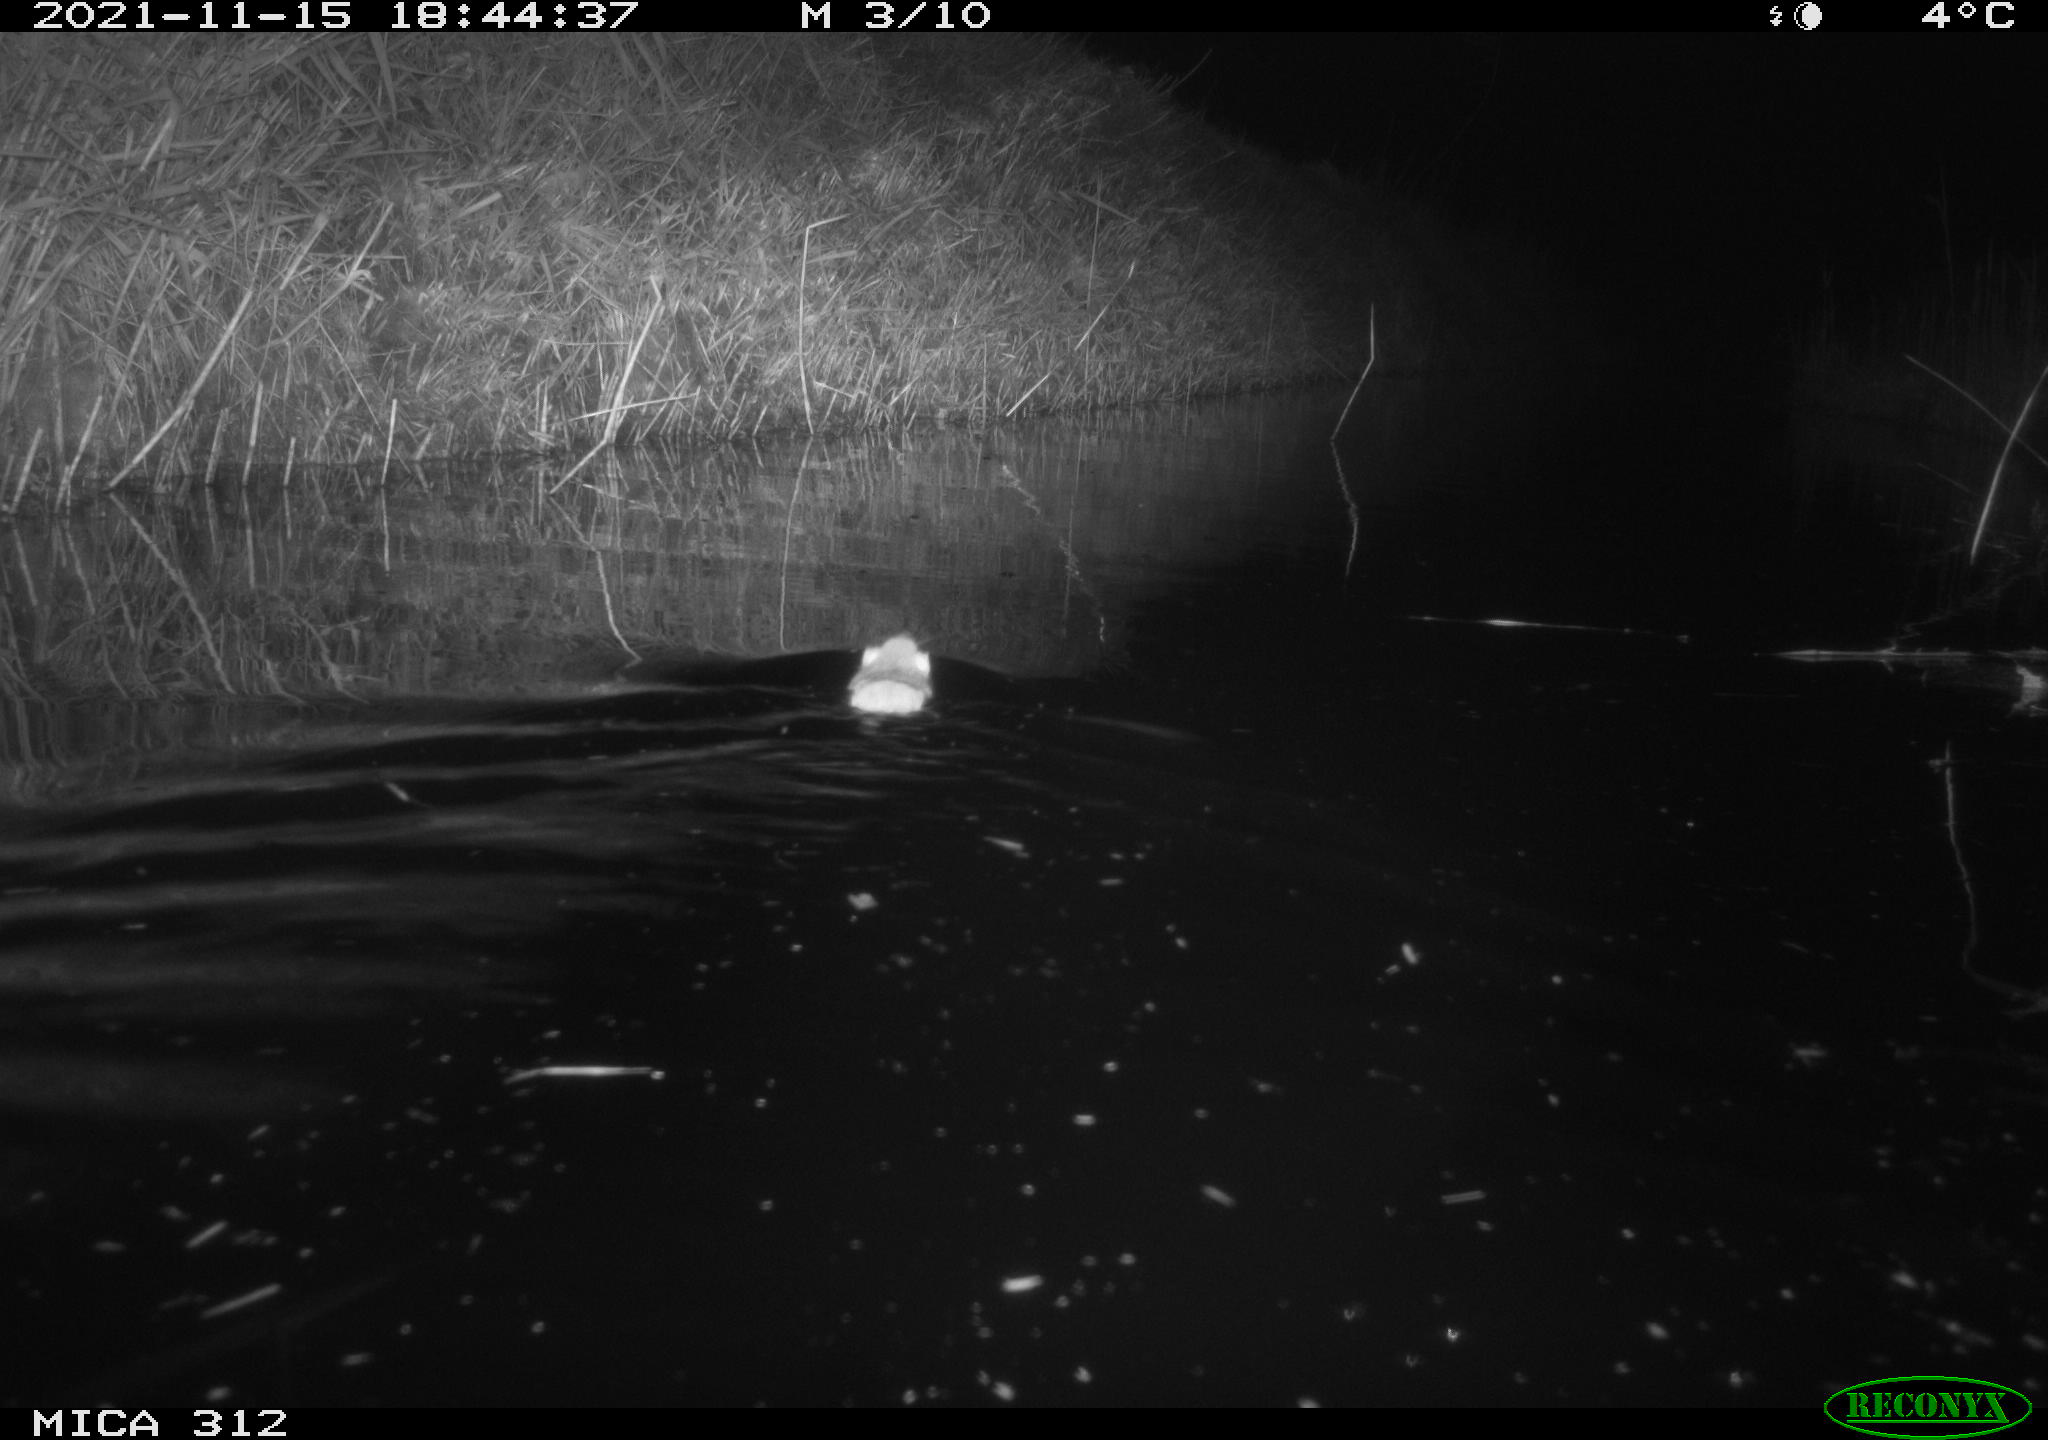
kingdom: Animalia
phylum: Chordata
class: Mammalia
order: Rodentia
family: Muridae
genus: Rattus
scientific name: Rattus norvegicus
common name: Brown rat
